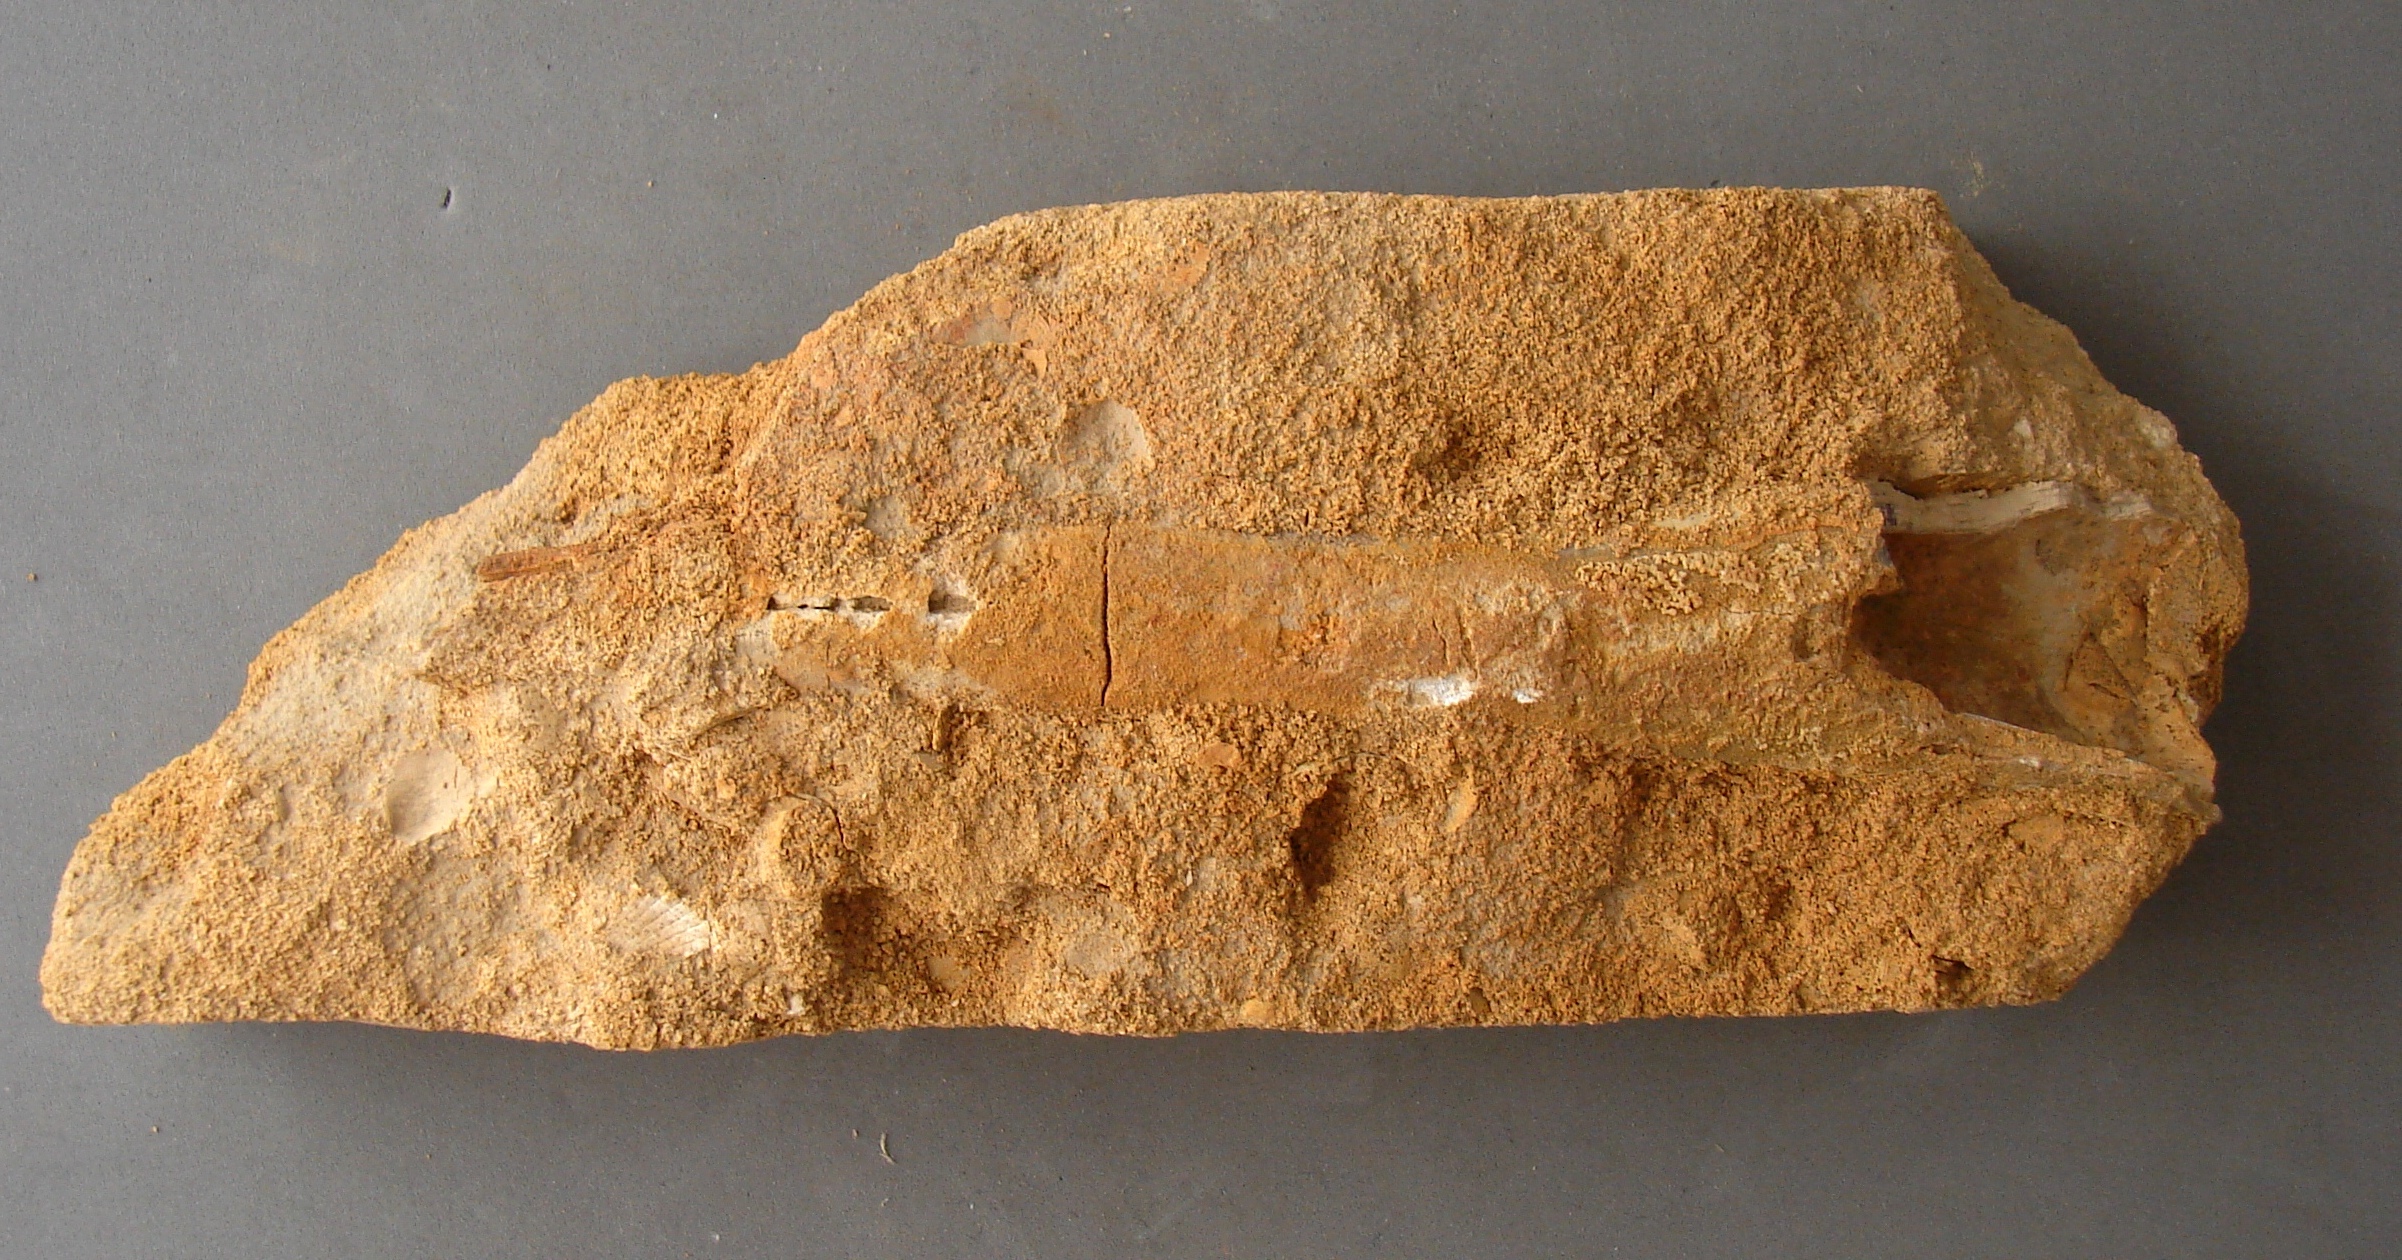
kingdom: Animalia
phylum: Mollusca
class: Cephalopoda
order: Belemnitida
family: Megateuthididae
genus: Megateuthis
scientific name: Megateuthis
